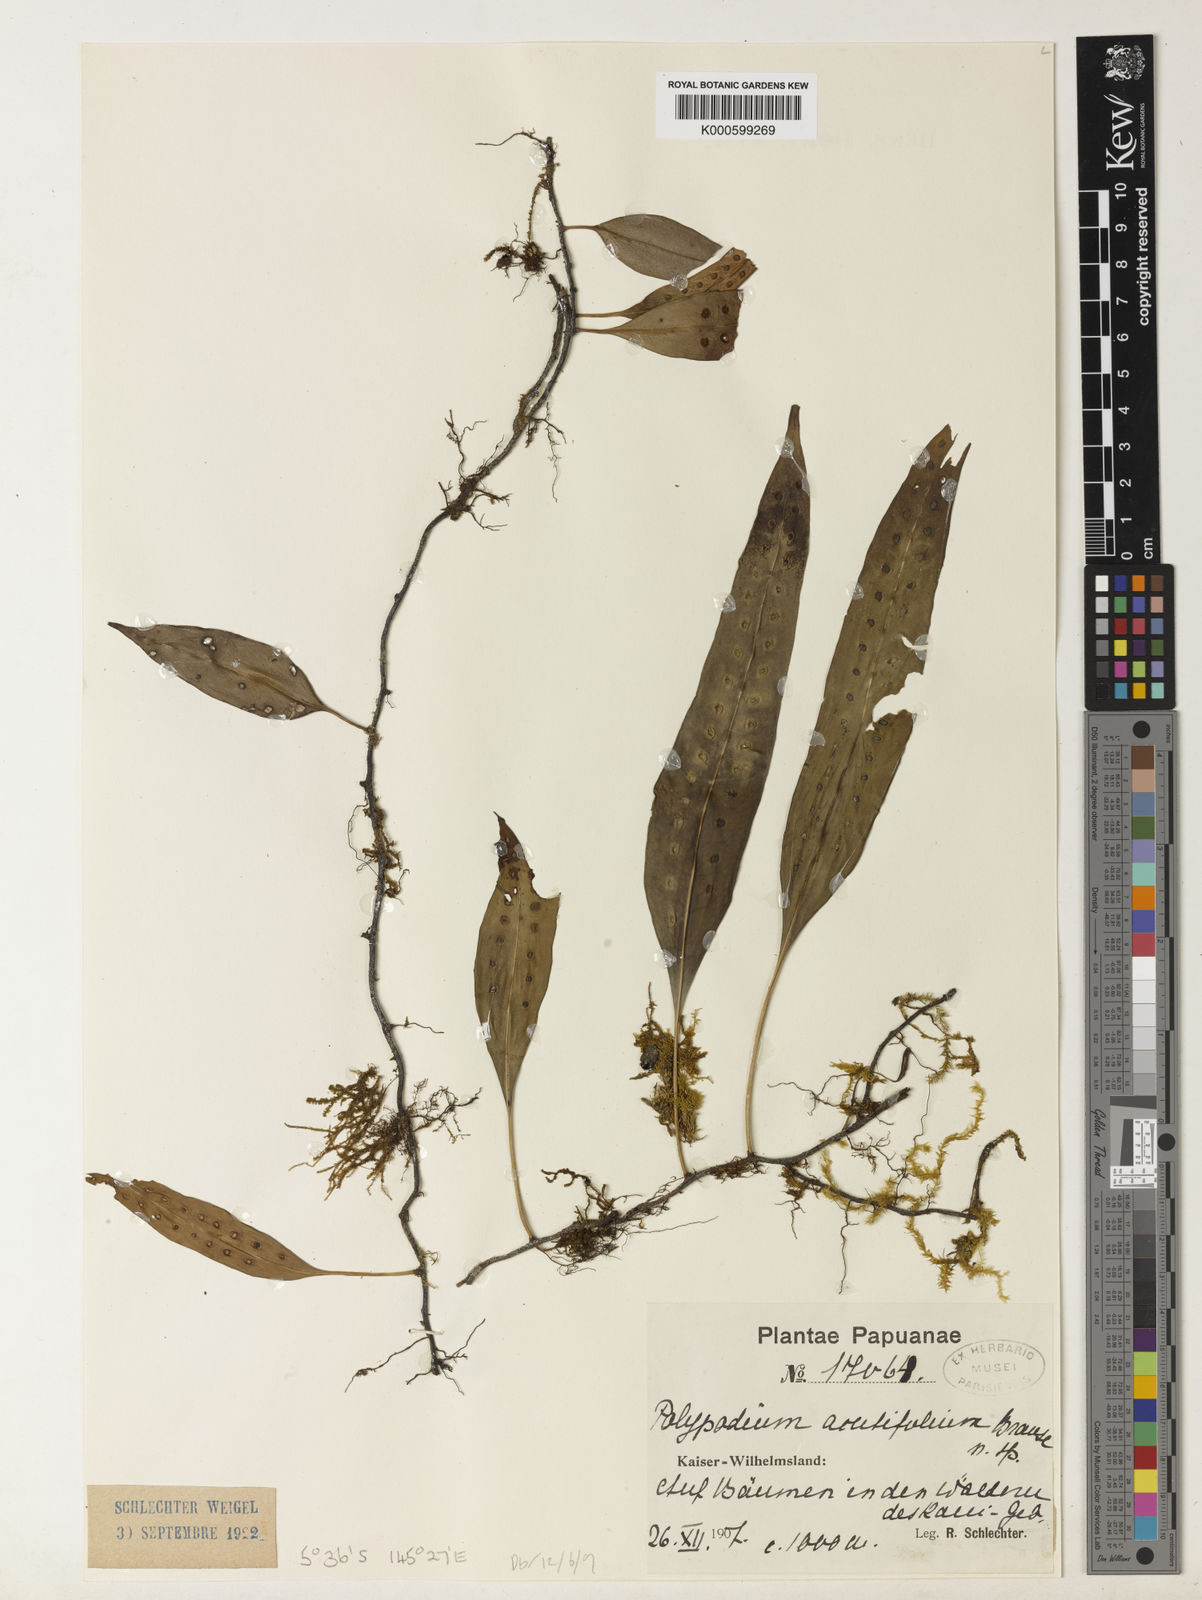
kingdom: Plantae
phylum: Tracheophyta
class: Polypodiopsida
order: Polypodiales
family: Polypodiaceae
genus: Microsorum
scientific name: Microsorum papuanum
